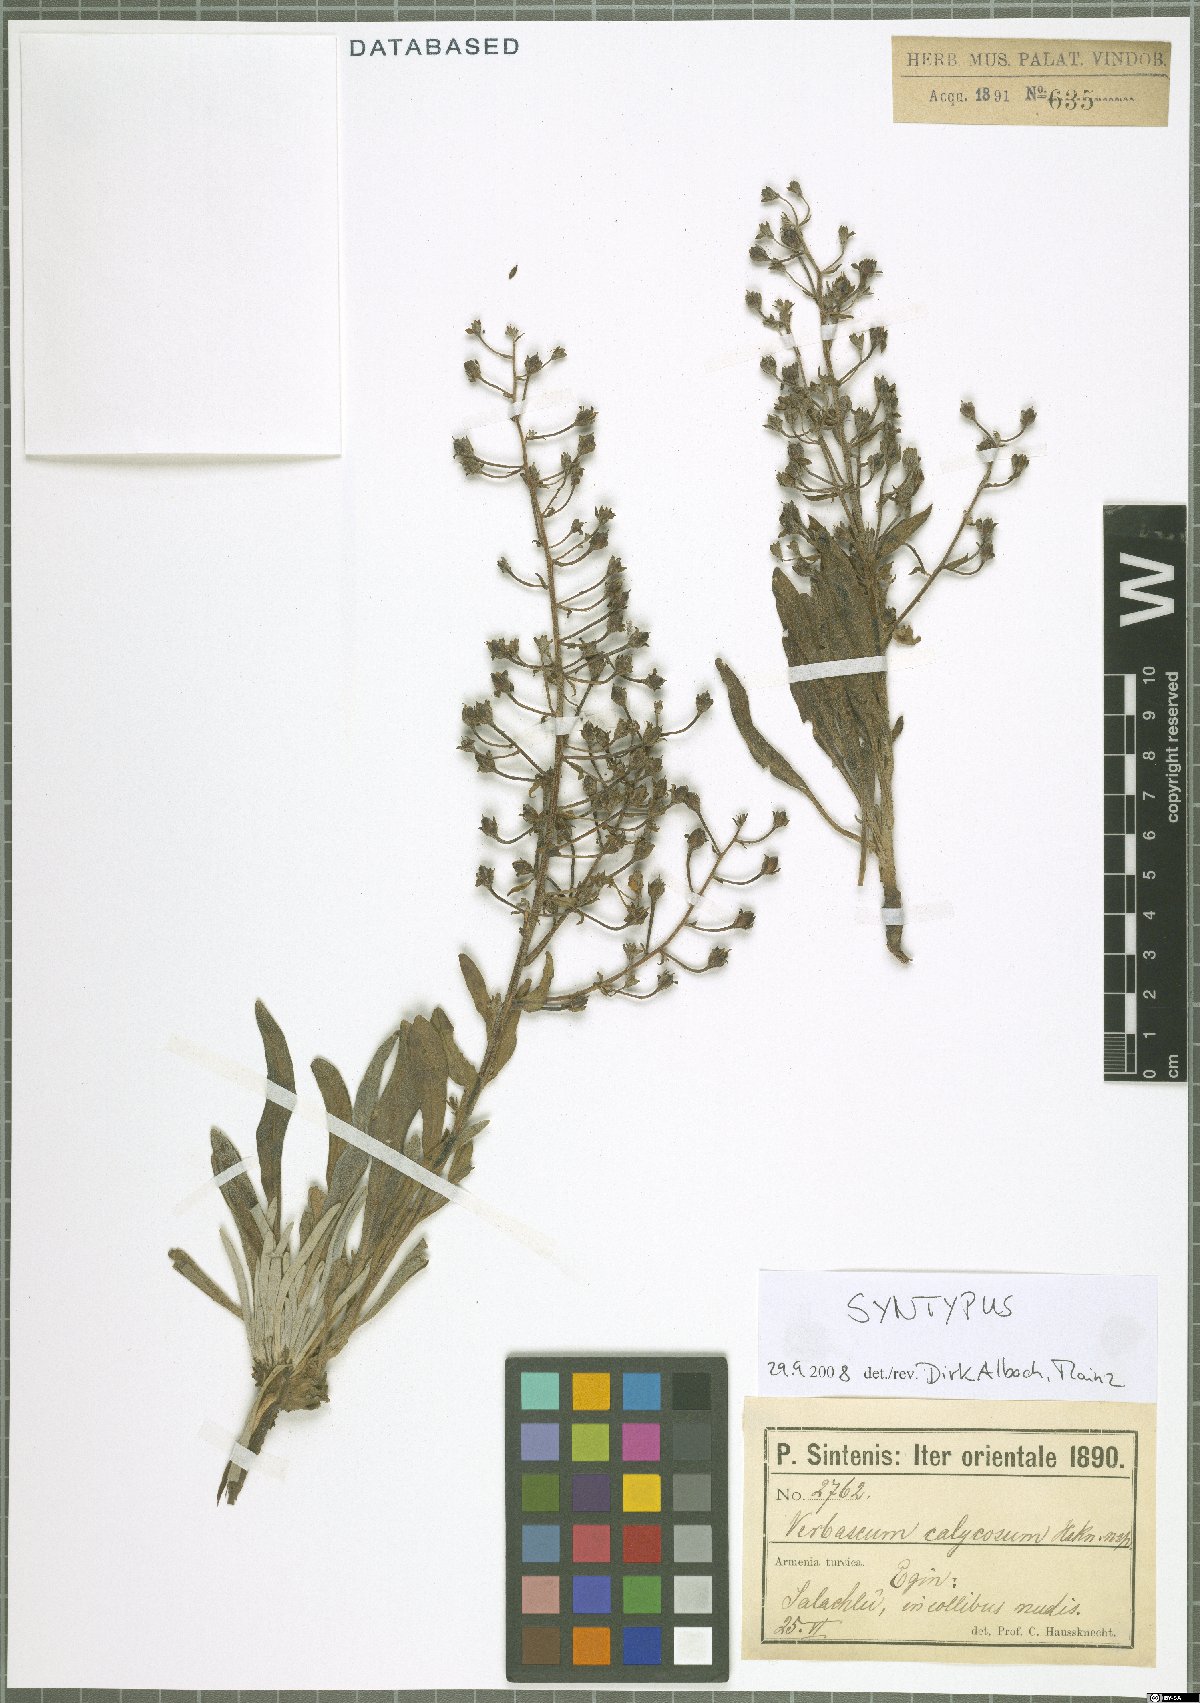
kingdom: Plantae
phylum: Tracheophyta
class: Magnoliopsida
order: Lamiales
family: Scrophulariaceae
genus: Verbascum
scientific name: Verbascum calycosum
